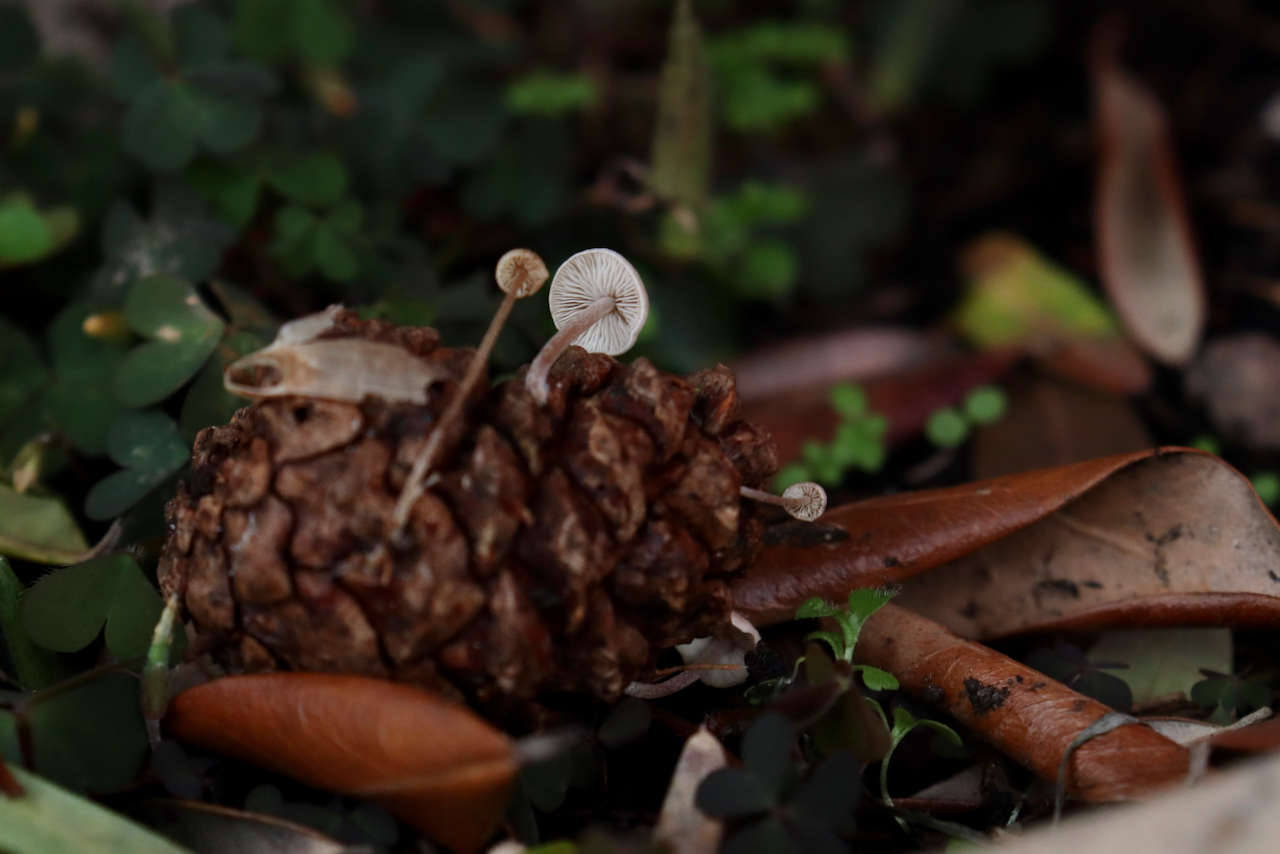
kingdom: Fungi
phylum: Basidiomycota
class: Agaricomycetes
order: Agaricales
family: Marasmiaceae
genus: Baeospora
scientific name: Baeospora myosura
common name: koglebruskhat
